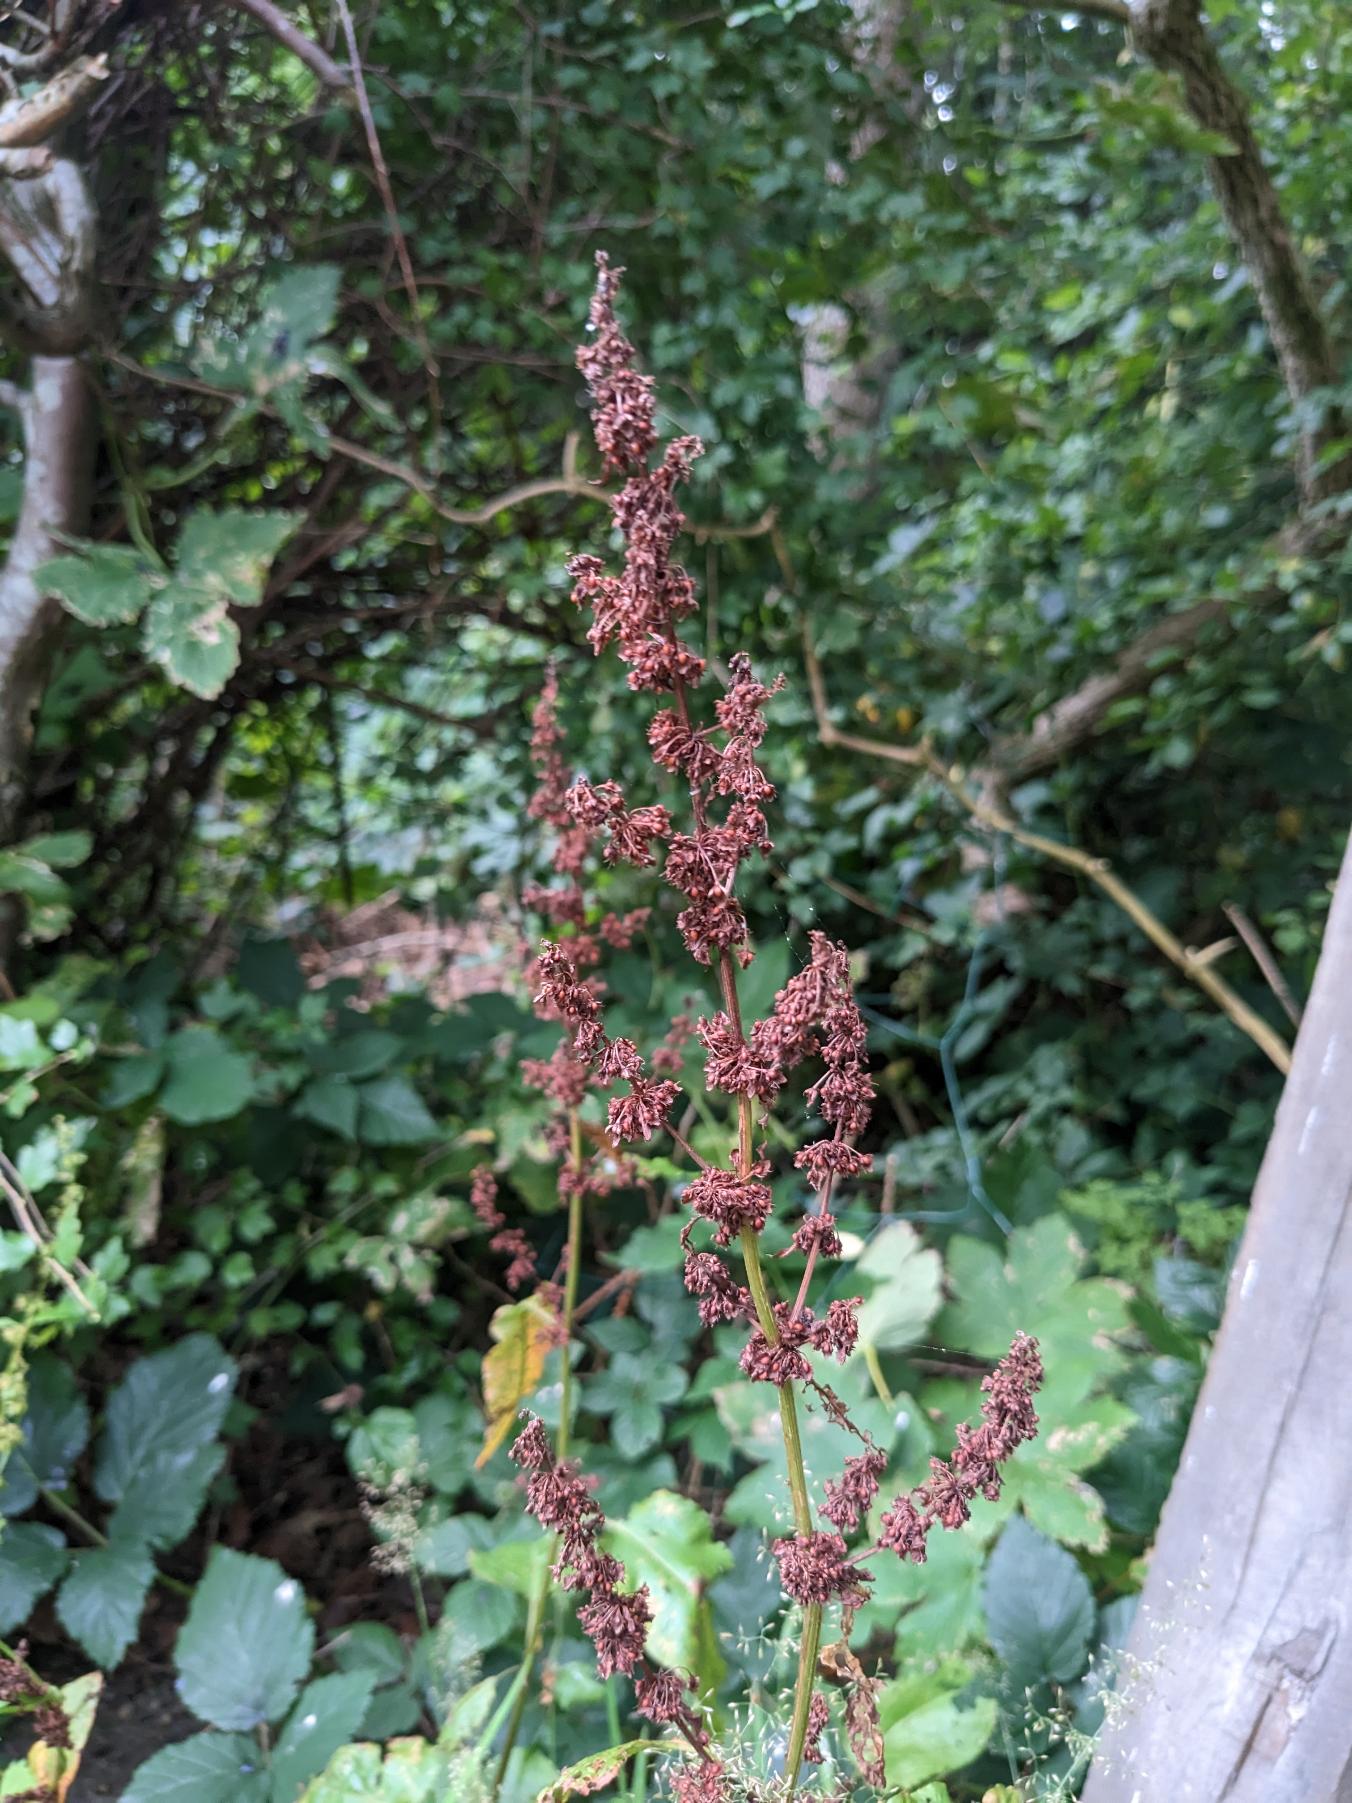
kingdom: Plantae
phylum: Tracheophyta
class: Magnoliopsida
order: Caryophyllales
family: Polygonaceae
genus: Rumex
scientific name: Rumex obtusifolius
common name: Butbladet skræppe
